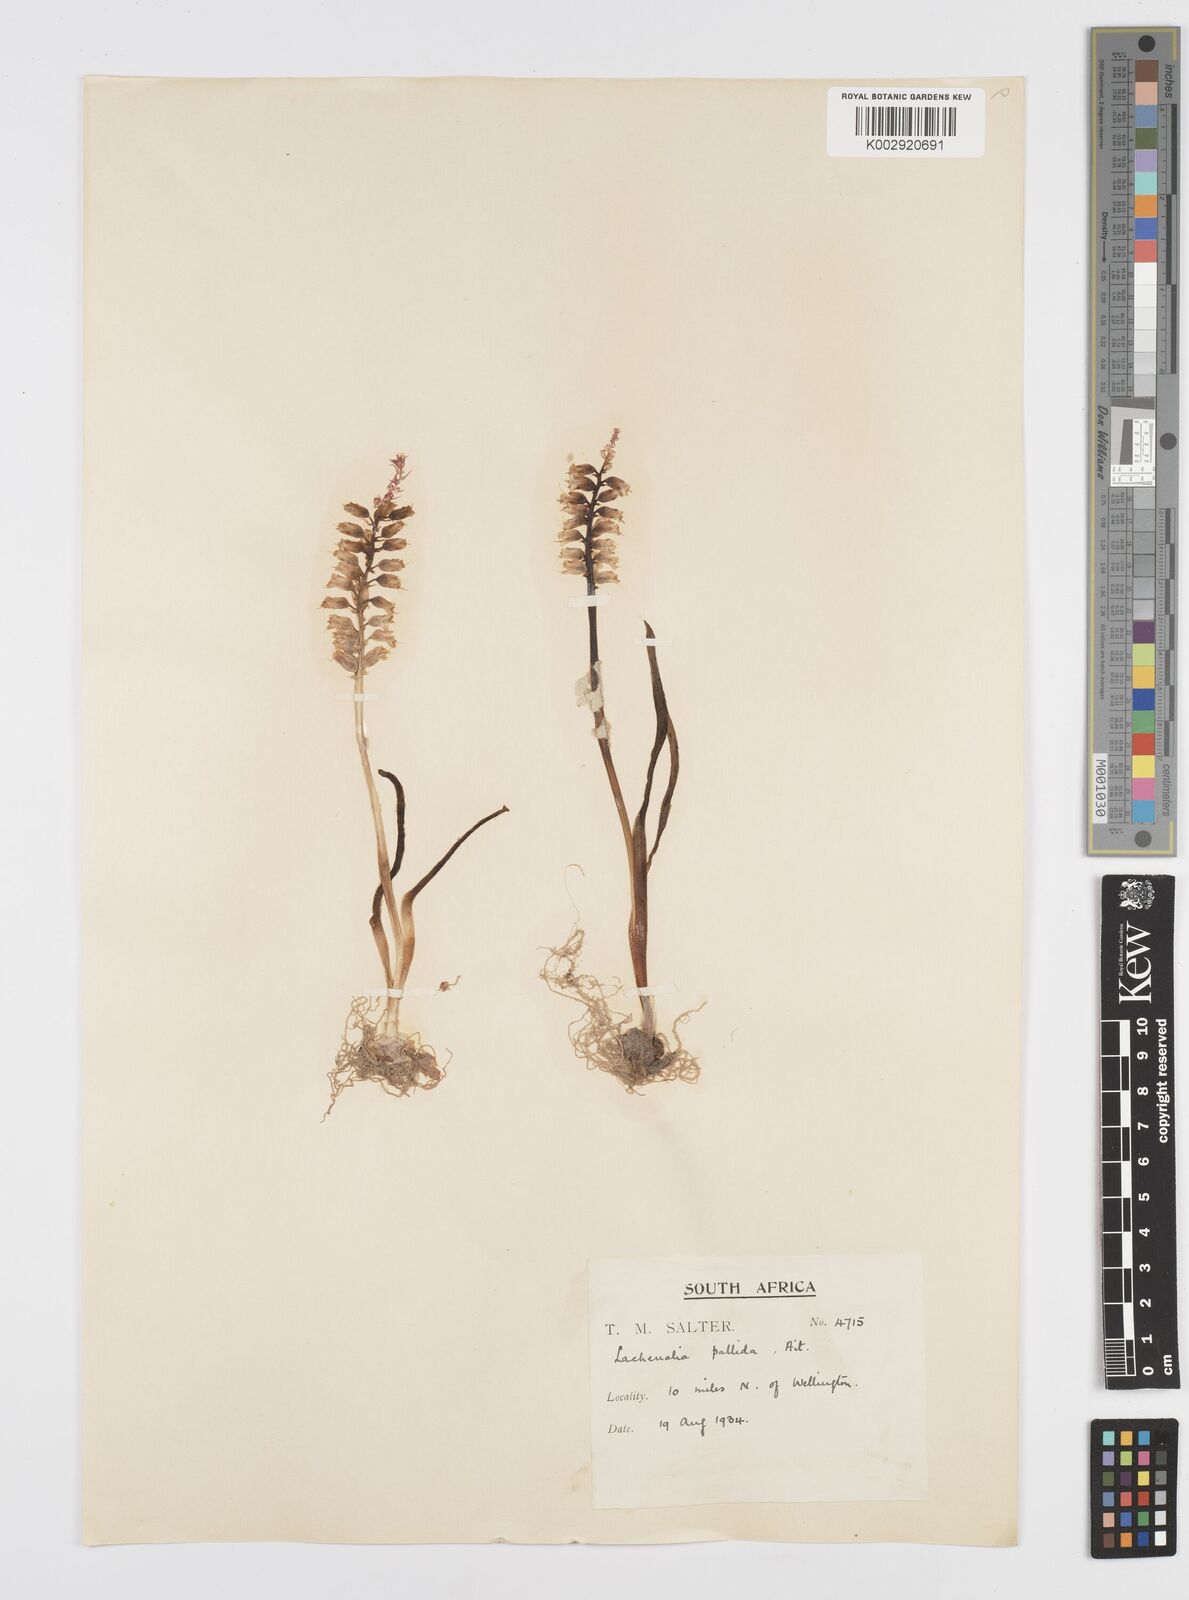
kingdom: Plantae
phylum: Tracheophyta
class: Liliopsida
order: Asparagales
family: Asparagaceae
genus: Lachenalia
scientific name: Lachenalia pallida
